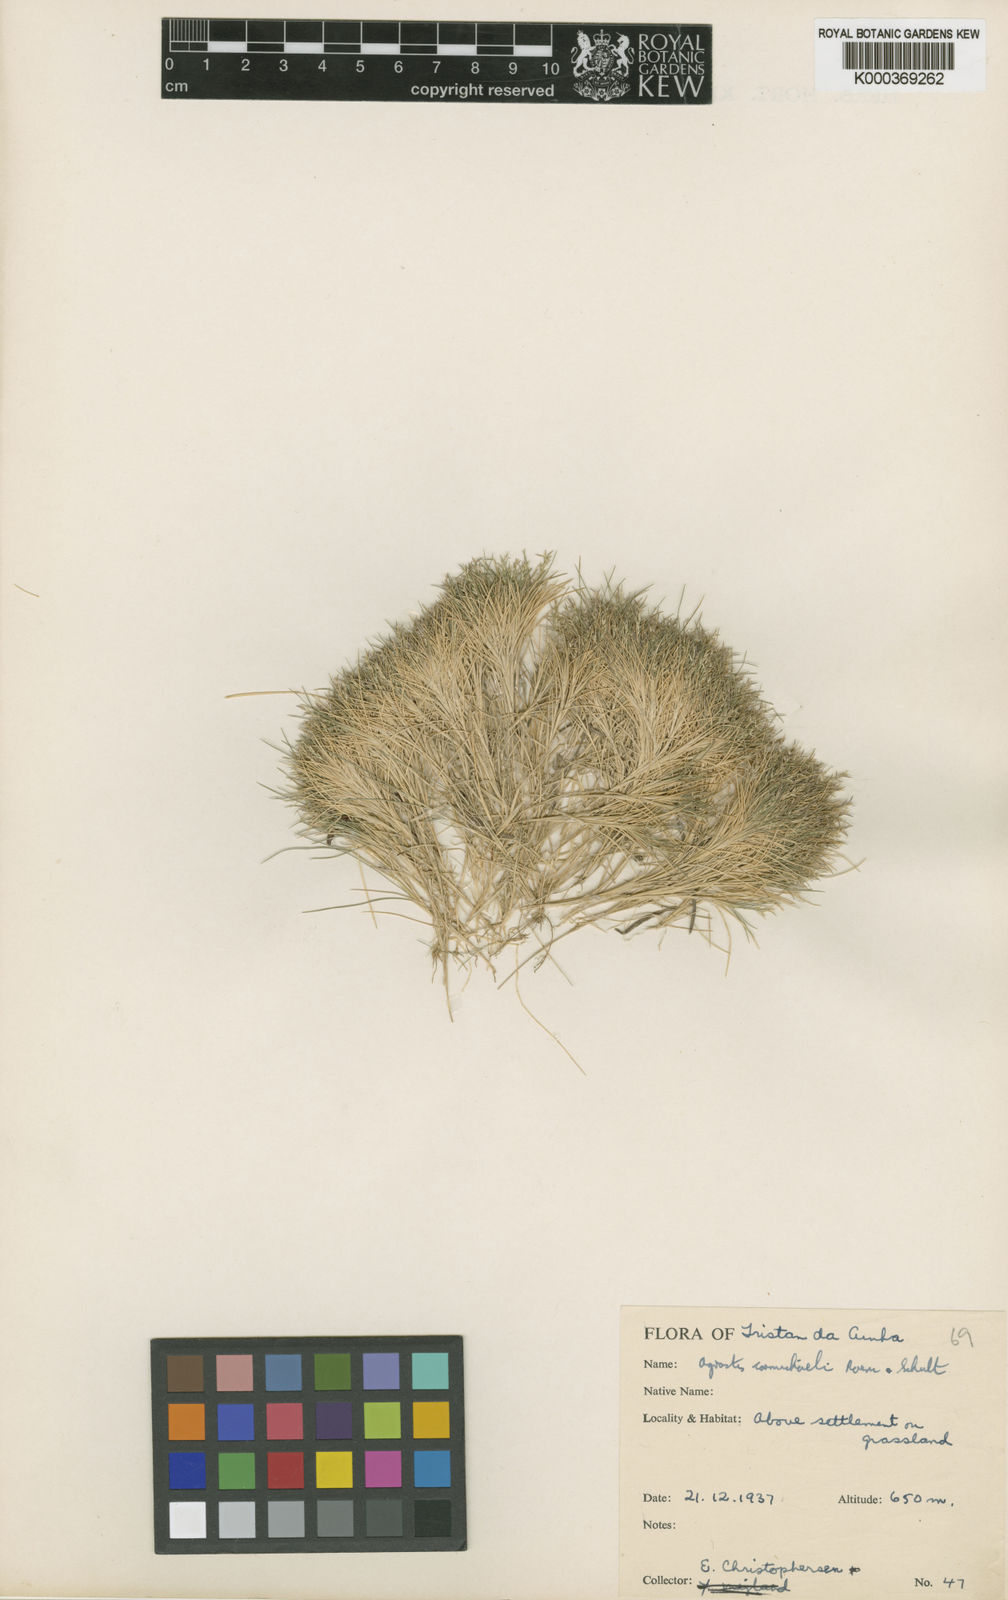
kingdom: Plantae
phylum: Tracheophyta
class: Liliopsida
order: Poales
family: Poaceae
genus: Agrostis
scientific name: Agrostis carmichaelii
